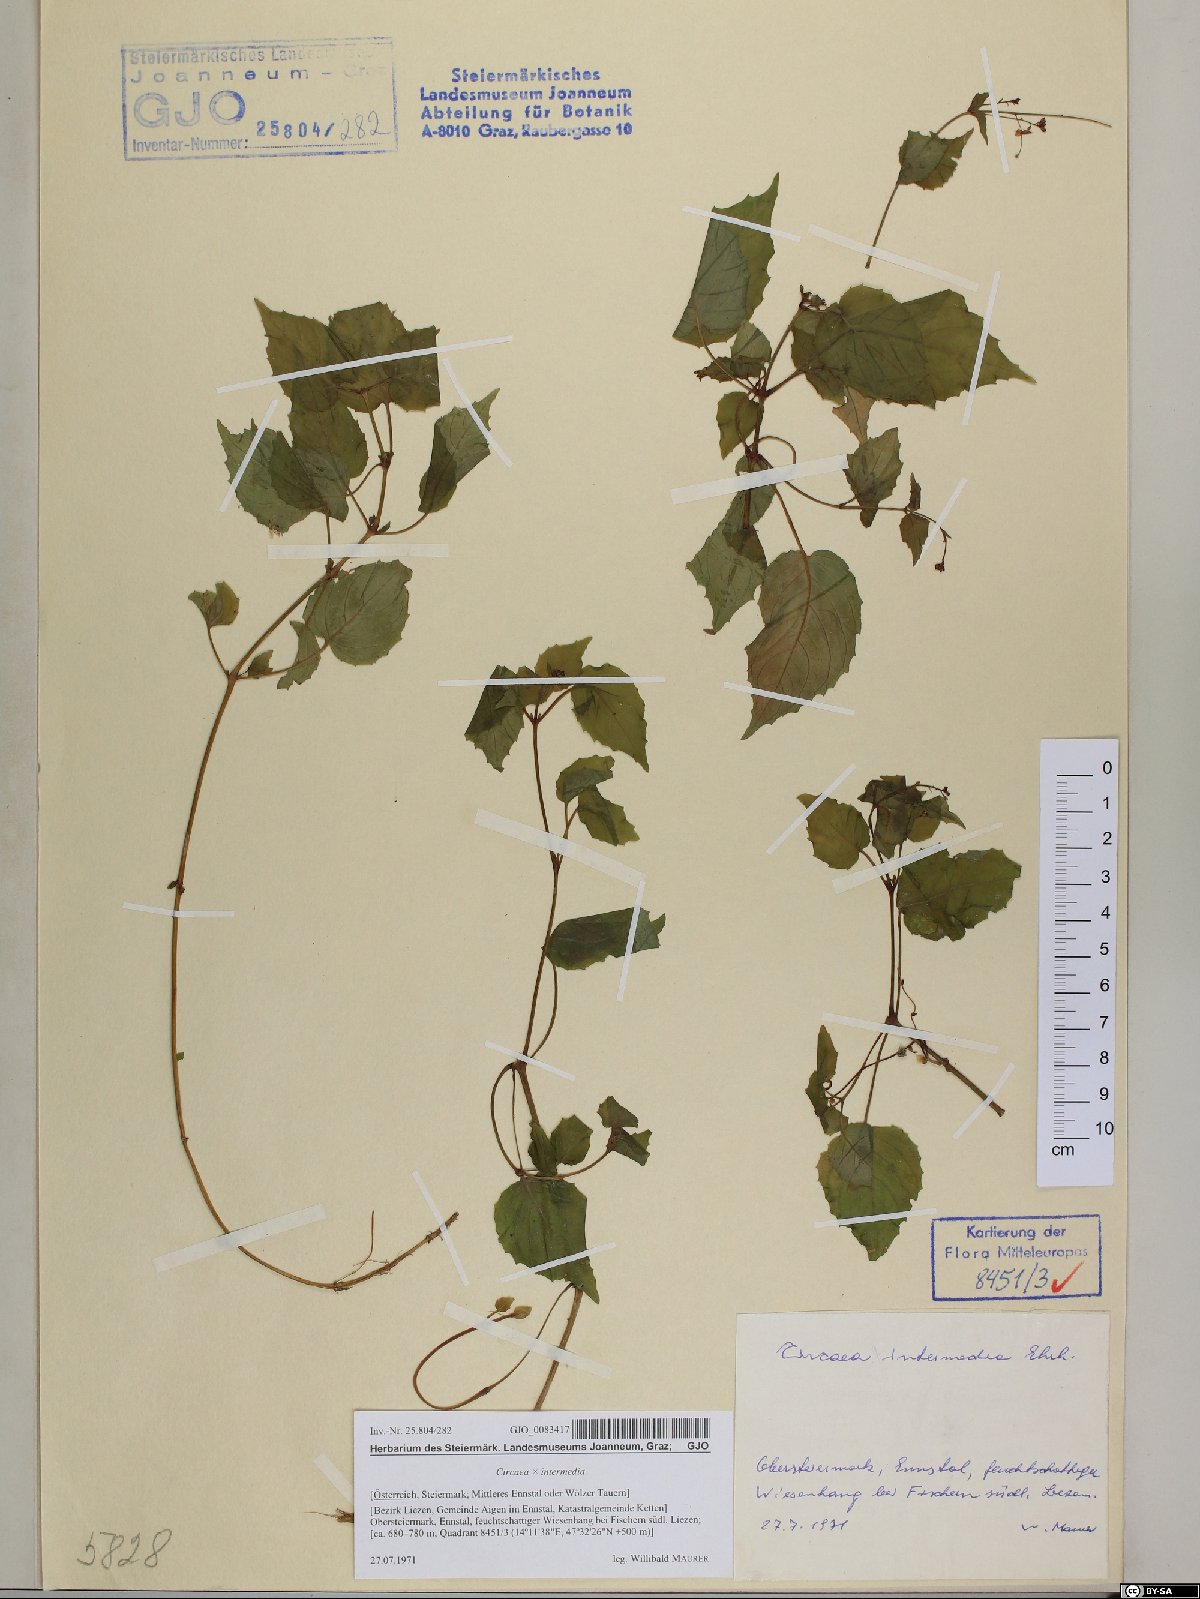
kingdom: Plantae
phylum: Tracheophyta
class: Magnoliopsida
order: Myrtales
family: Onagraceae
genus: Circaea
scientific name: Circaea intermedia
